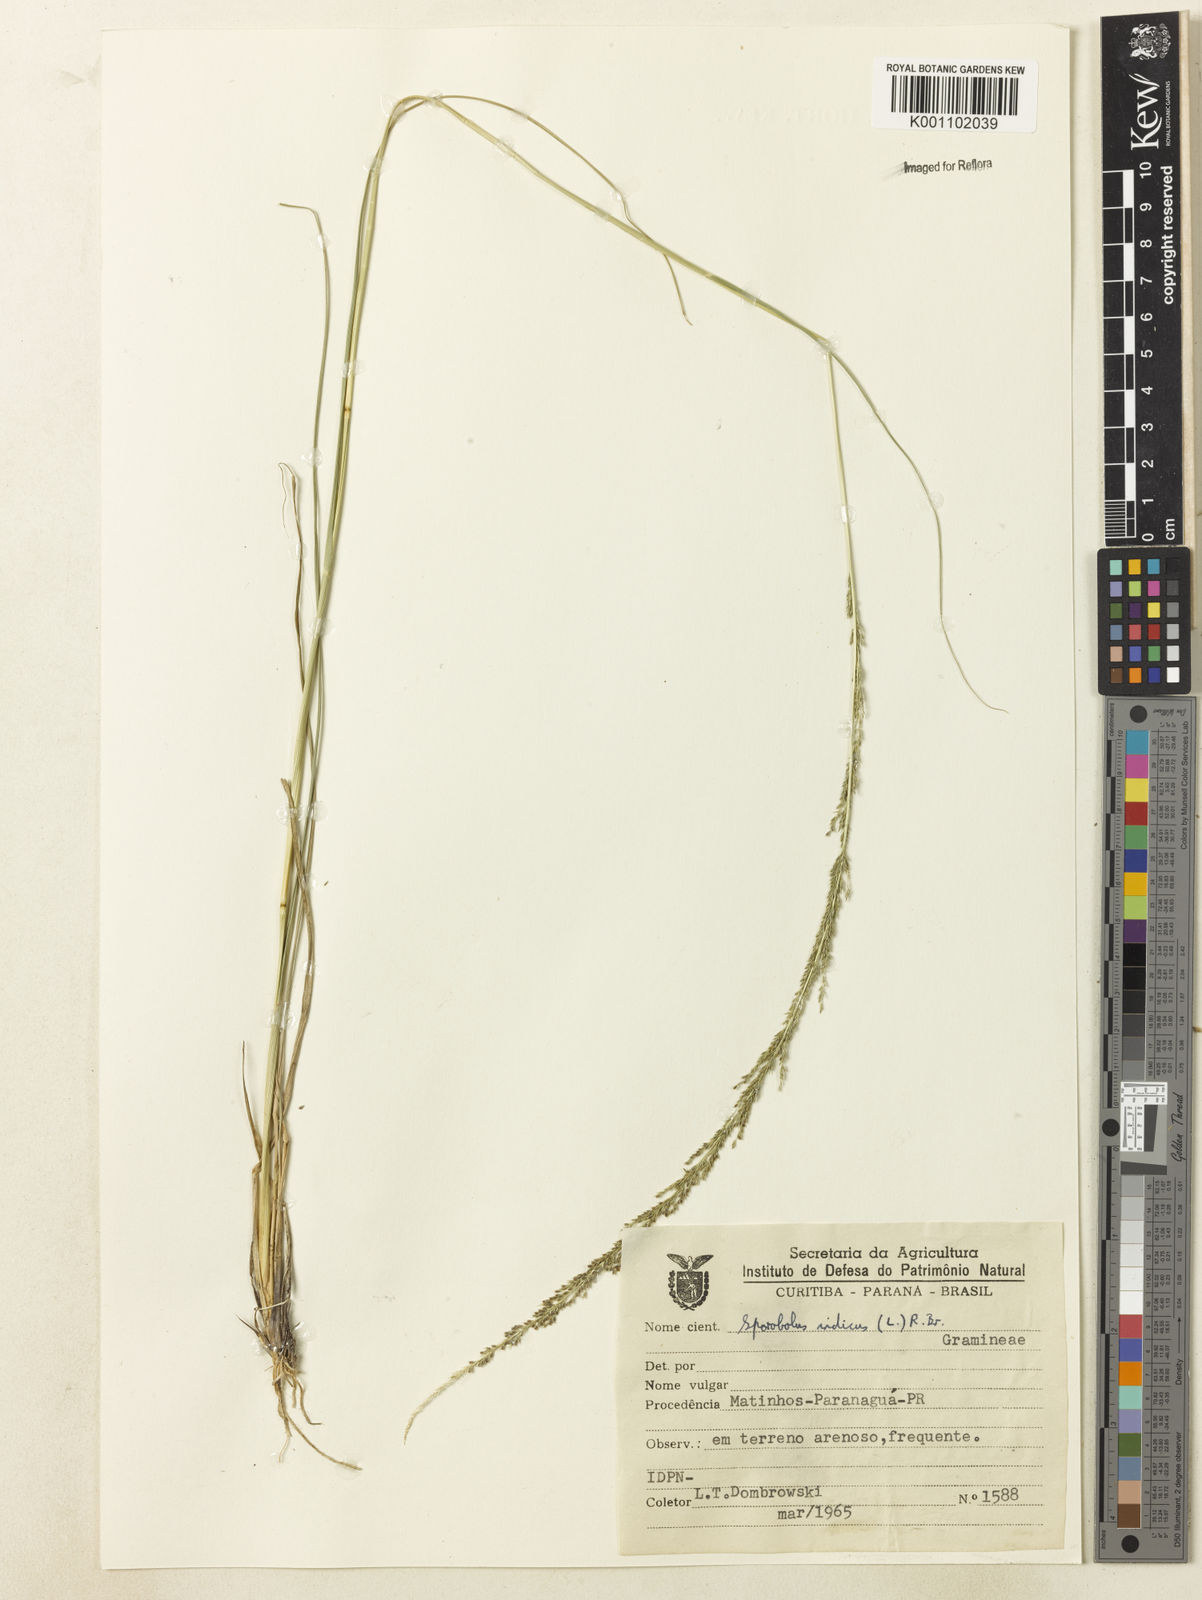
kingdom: Plantae
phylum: Tracheophyta
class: Liliopsida
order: Poales
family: Poaceae
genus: Sporobolus
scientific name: Sporobolus indicus
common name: Smut grass
